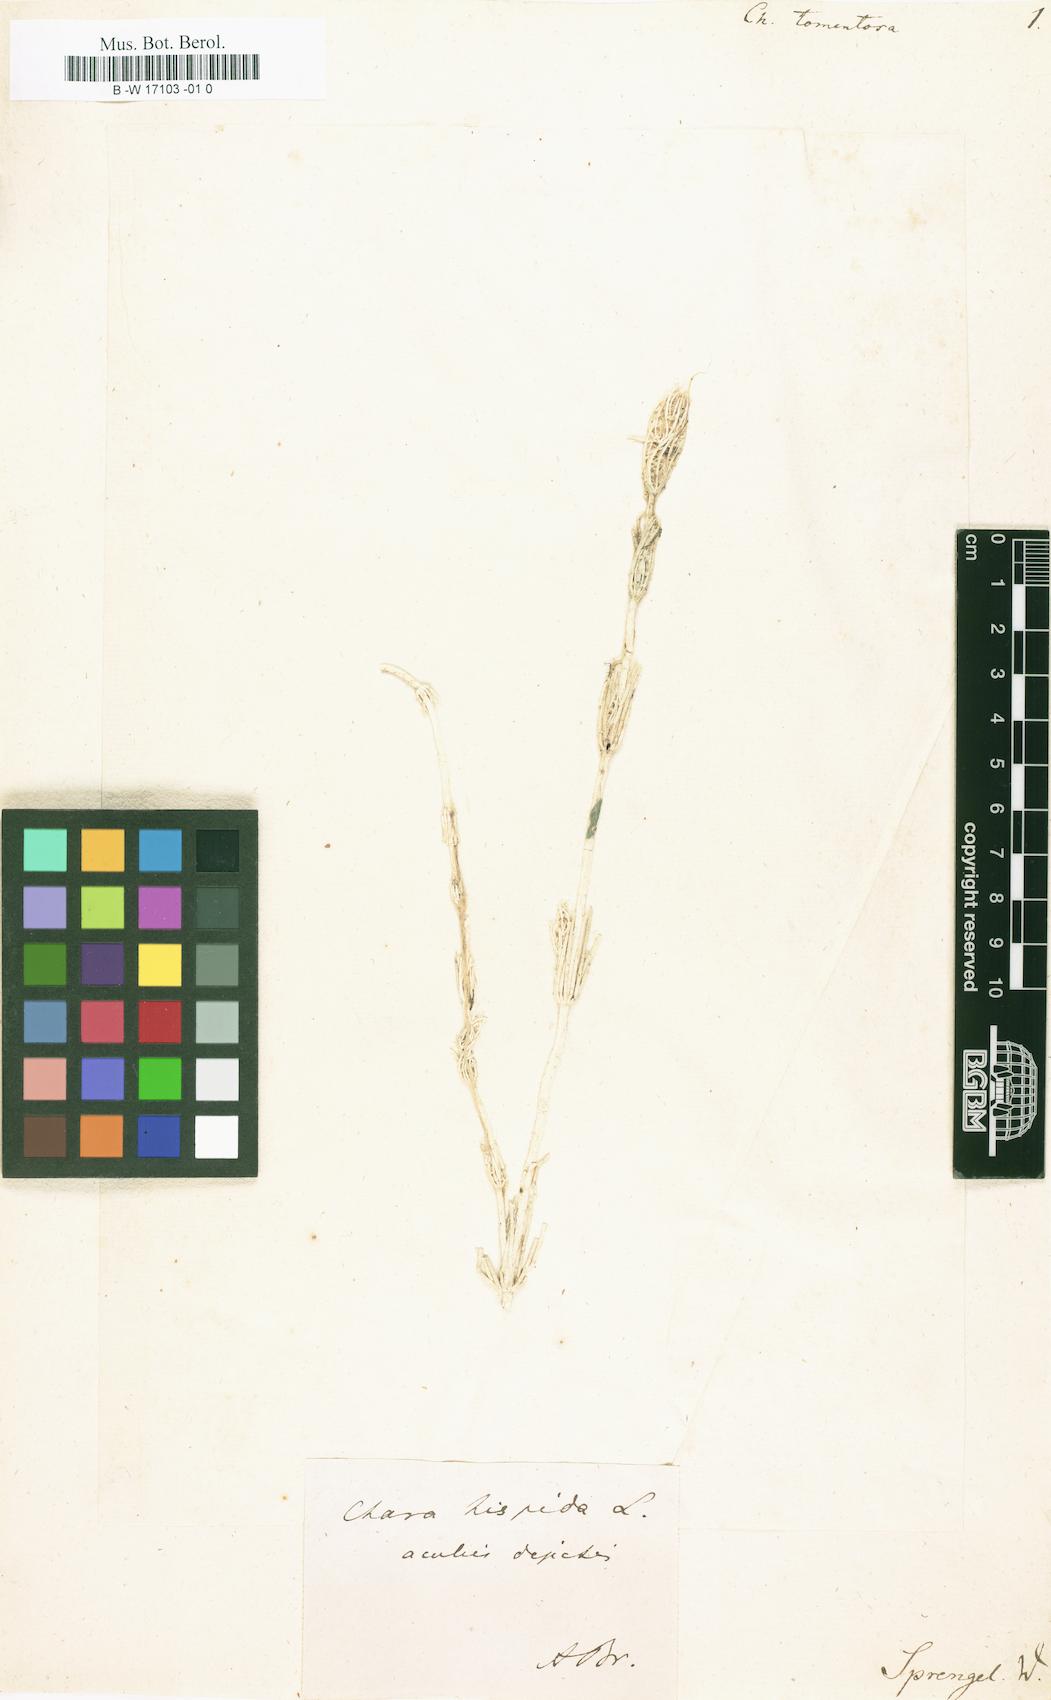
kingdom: Plantae
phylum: Charophyta
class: Charophyceae
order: Charales
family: Characeae
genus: Chara
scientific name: Chara tomentosa
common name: Coral stonewort
